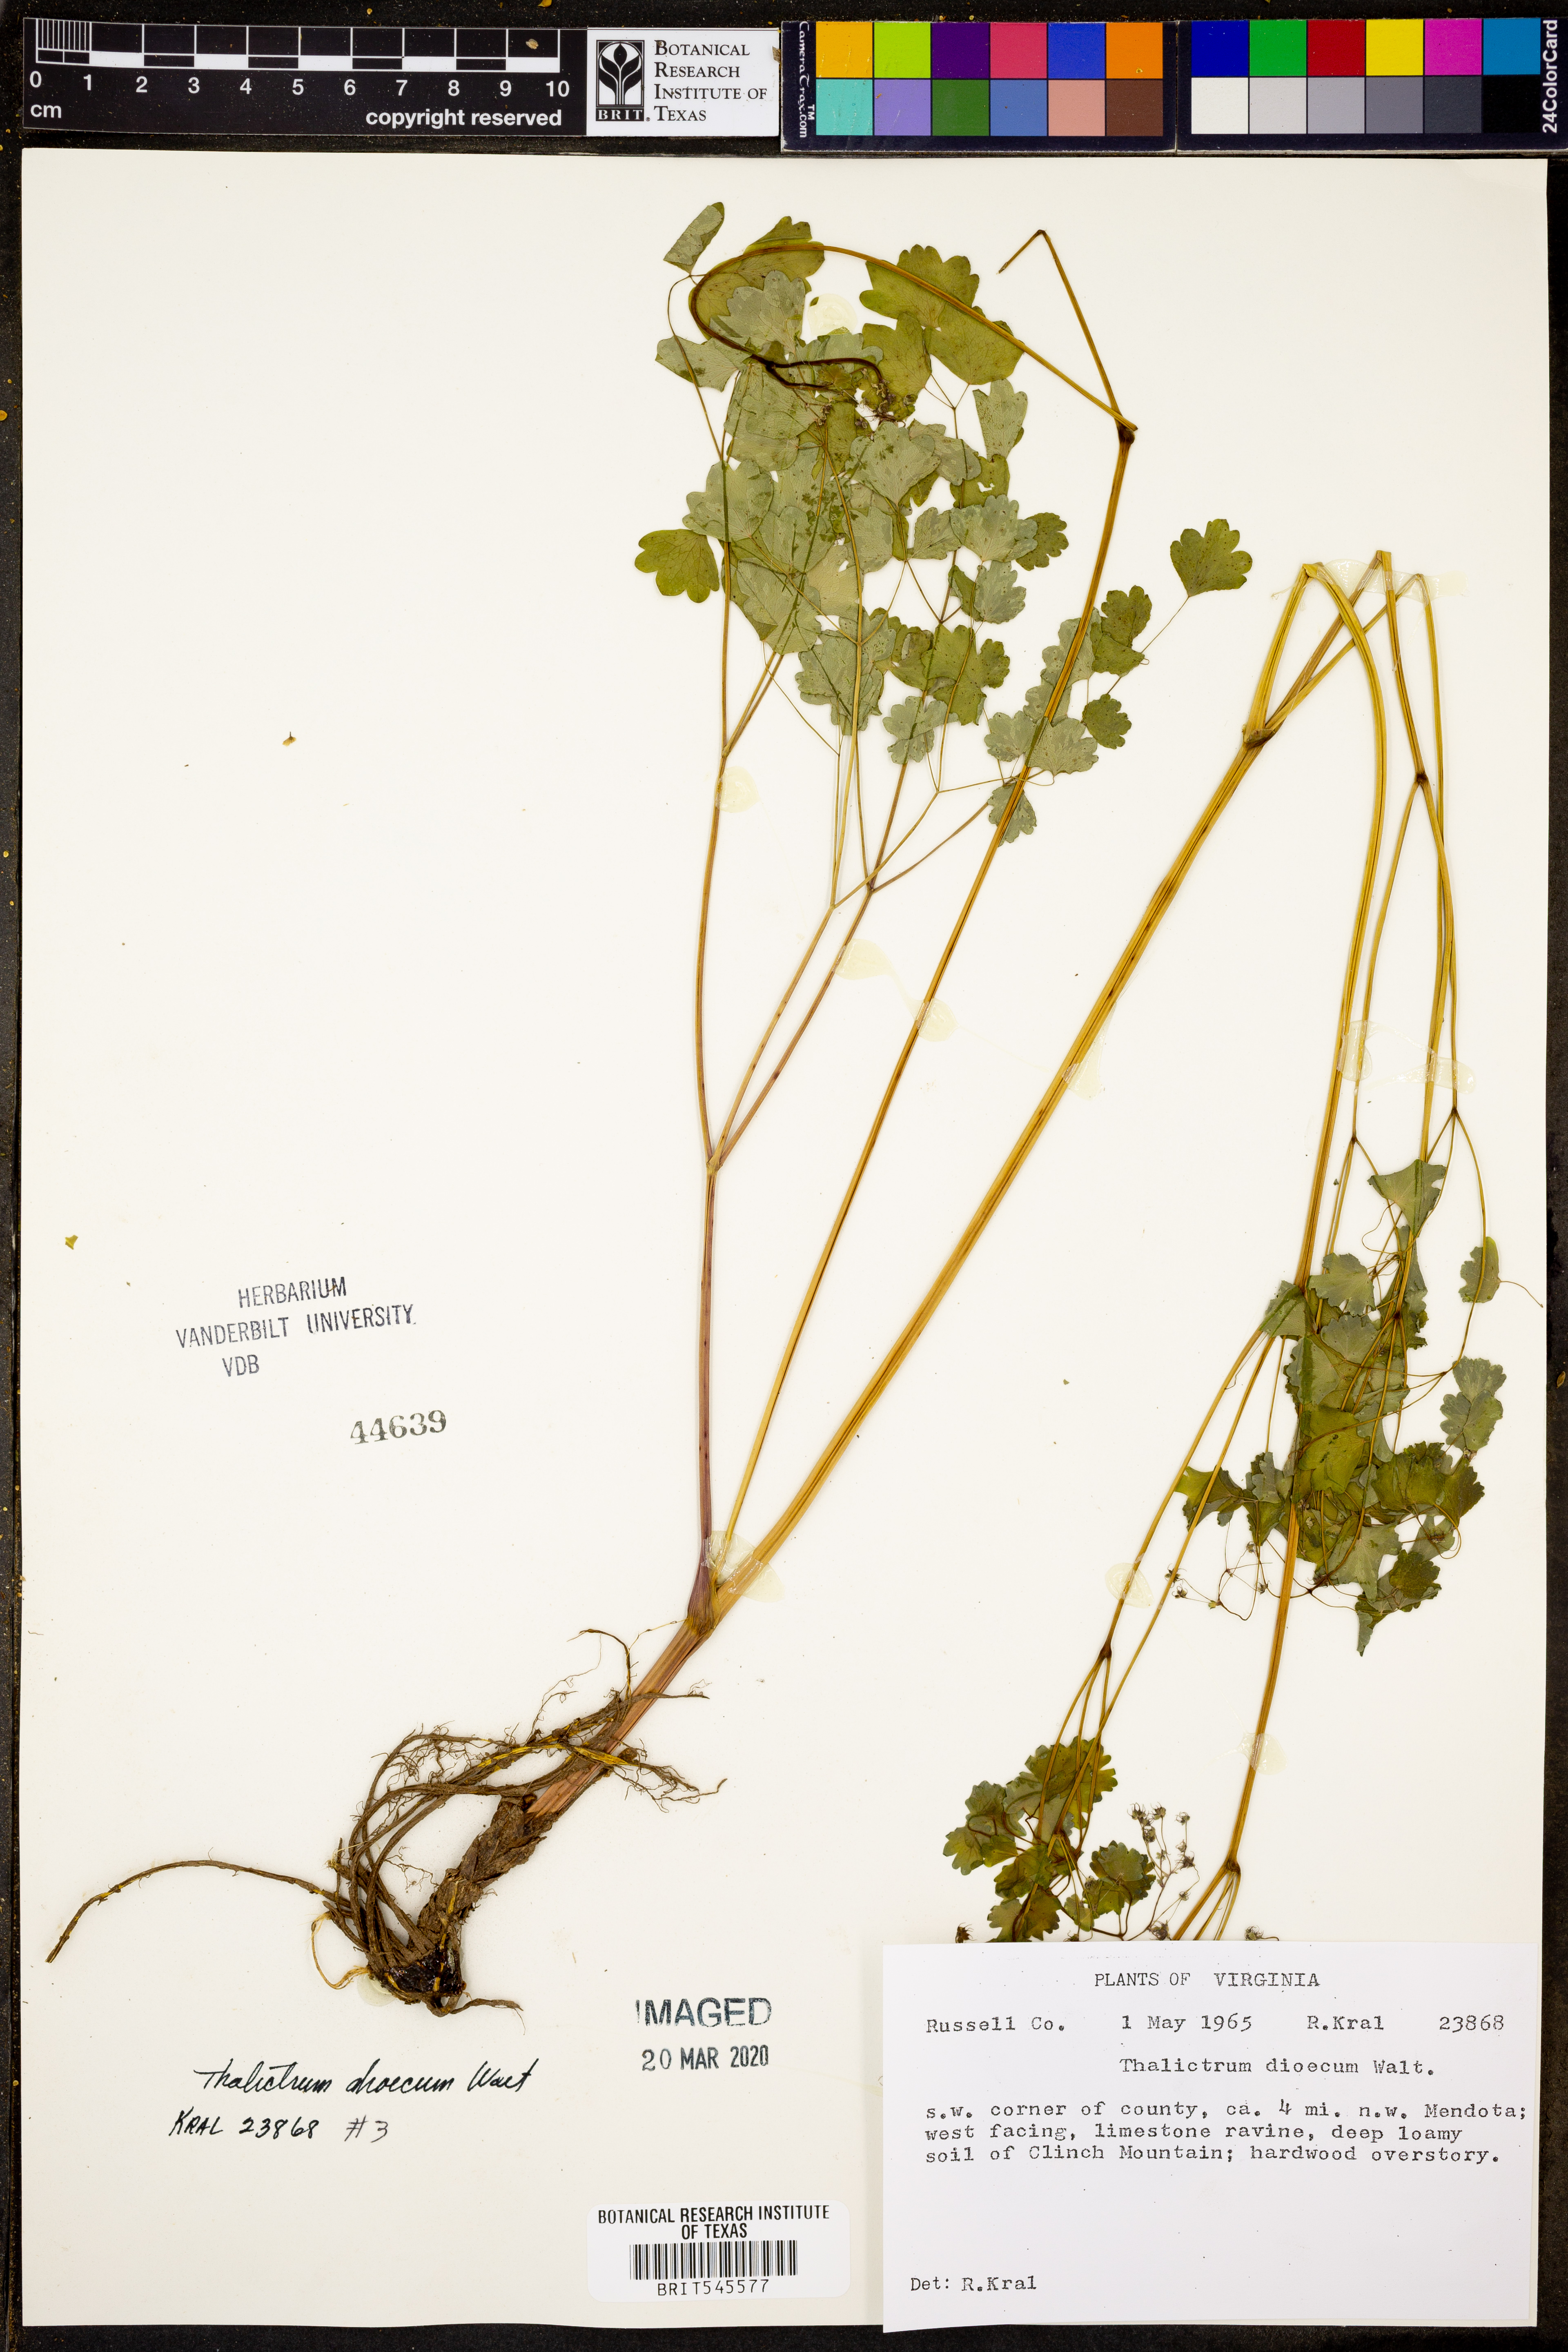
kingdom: Plantae
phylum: Tracheophyta
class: Magnoliopsida
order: Ranunculales
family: Ranunculaceae
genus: Thalictrum
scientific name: Thalictrum dioicum
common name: Early meadow-rue
